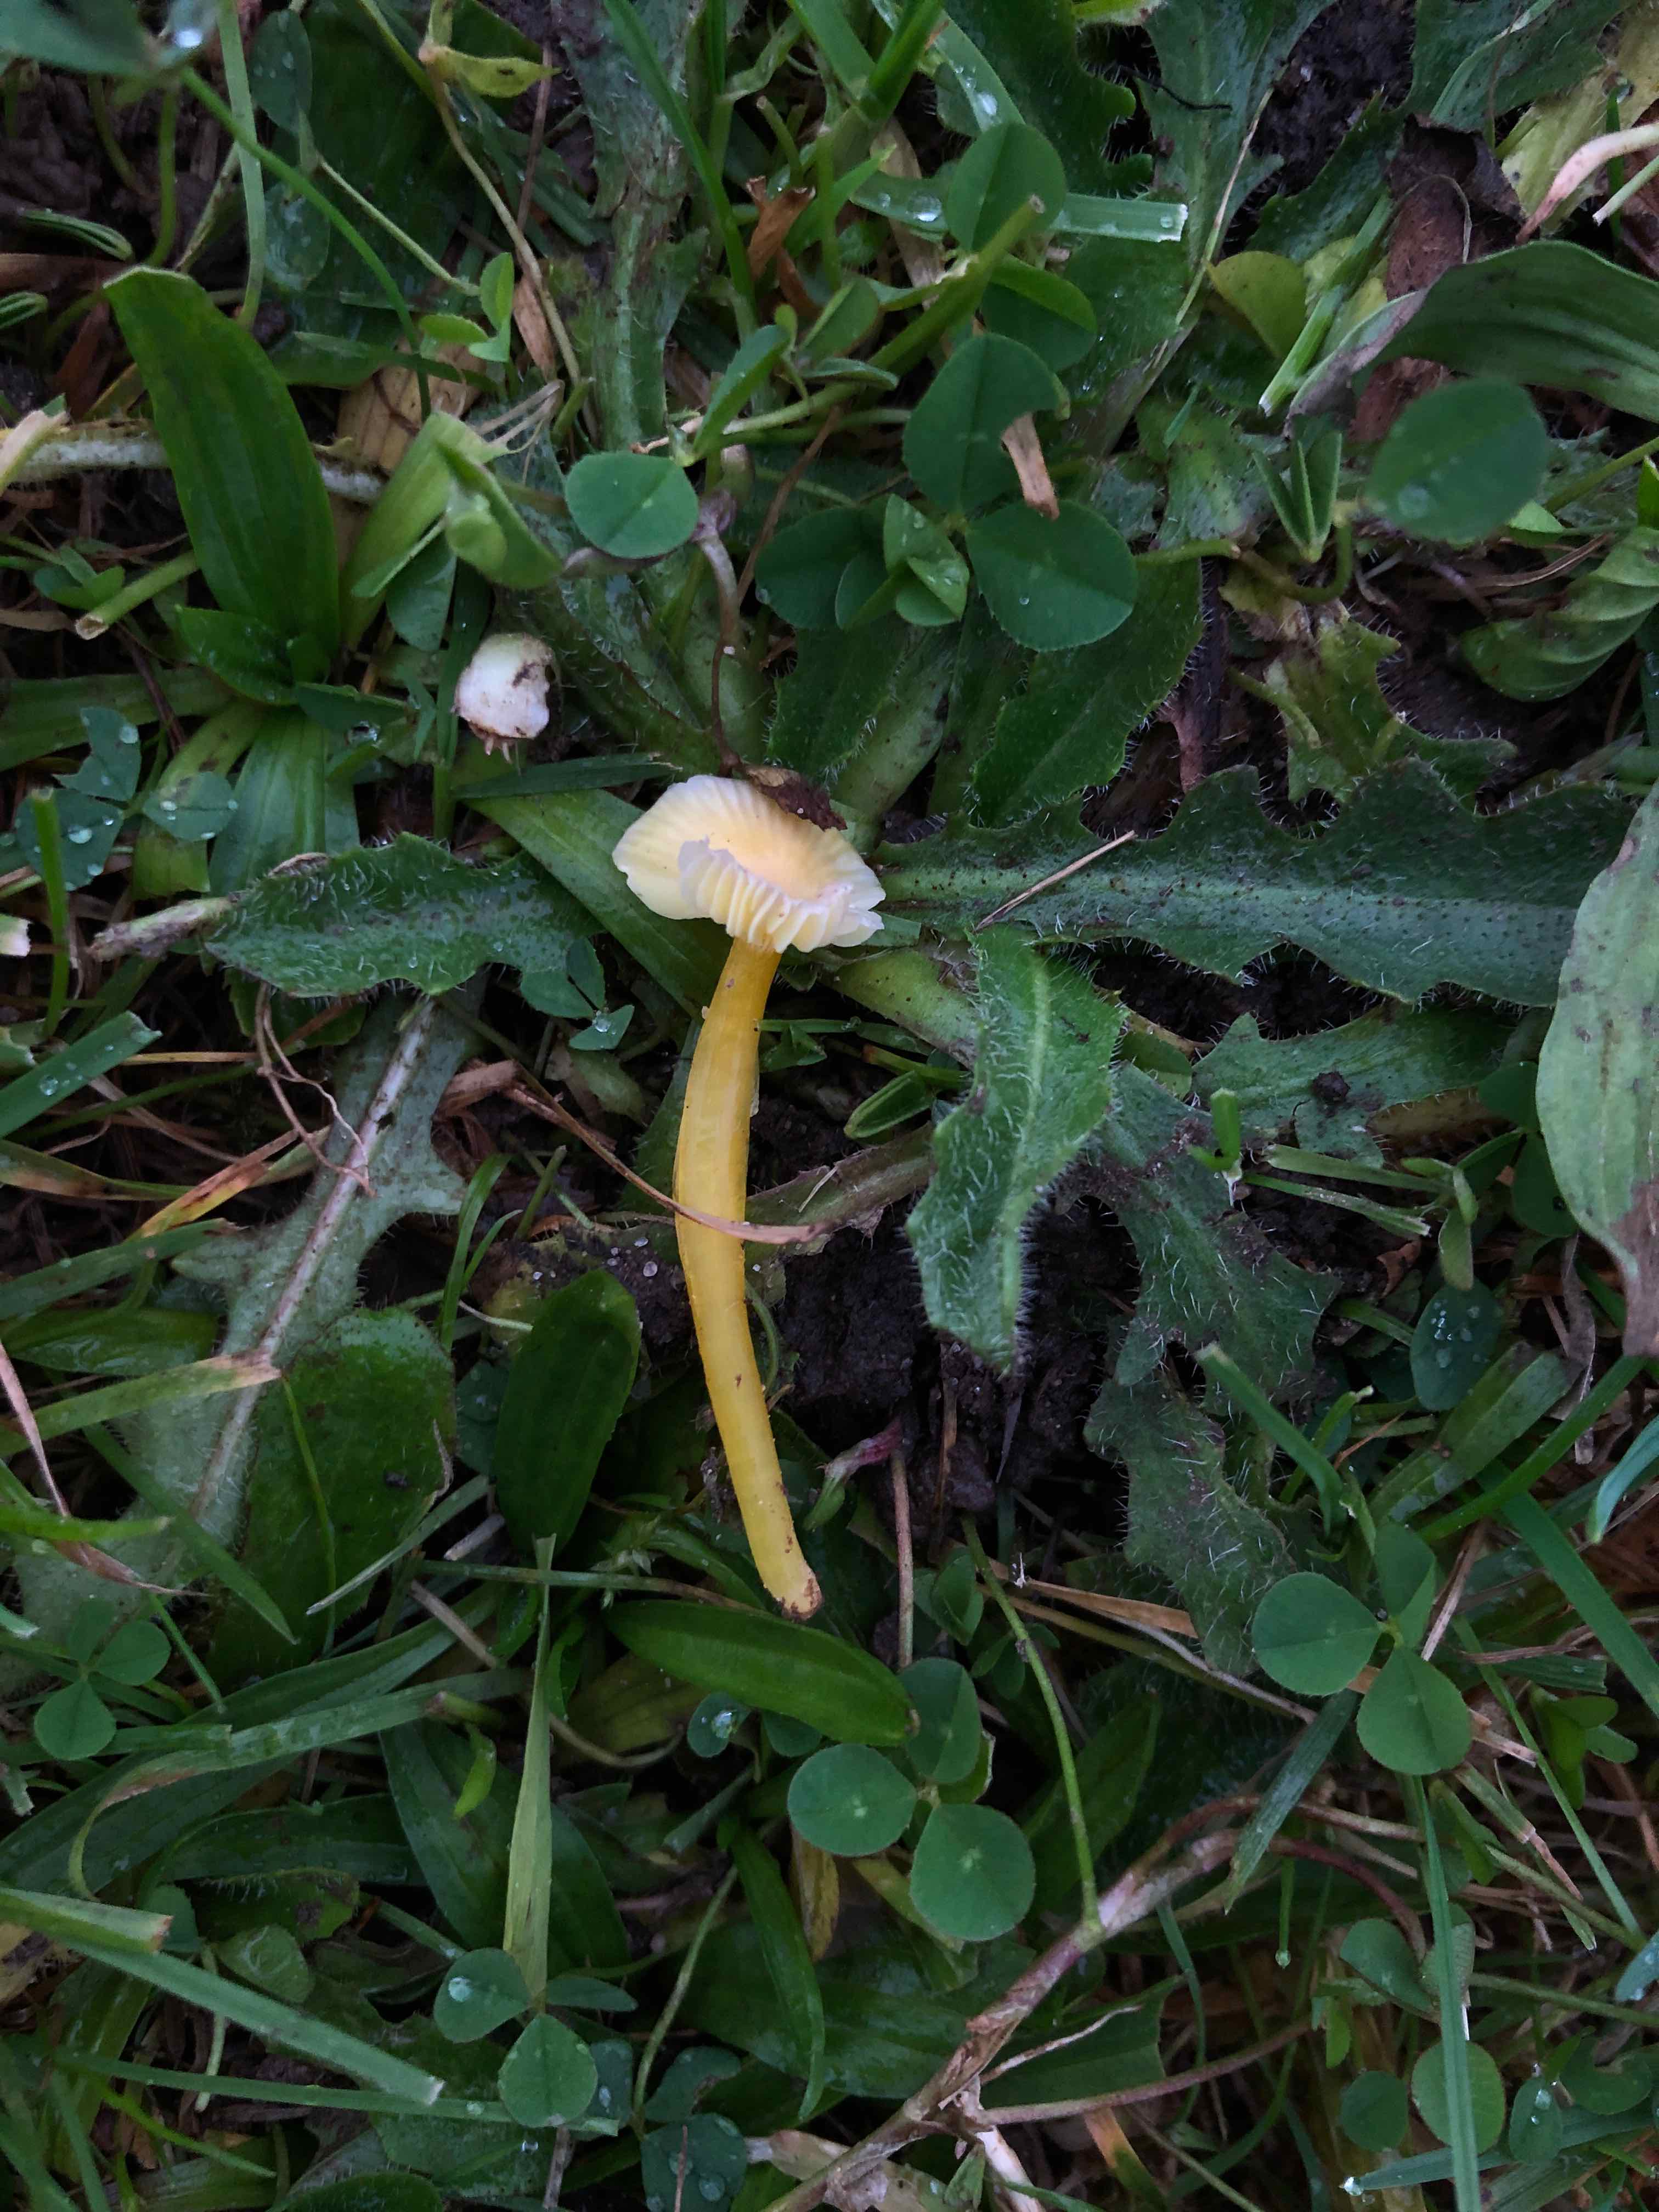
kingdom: Fungi
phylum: Basidiomycota
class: Agaricomycetes
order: Agaricales
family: Hygrophoraceae
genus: Hygrocybe
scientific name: Hygrocybe glutinipes
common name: slimstokket vokshat
